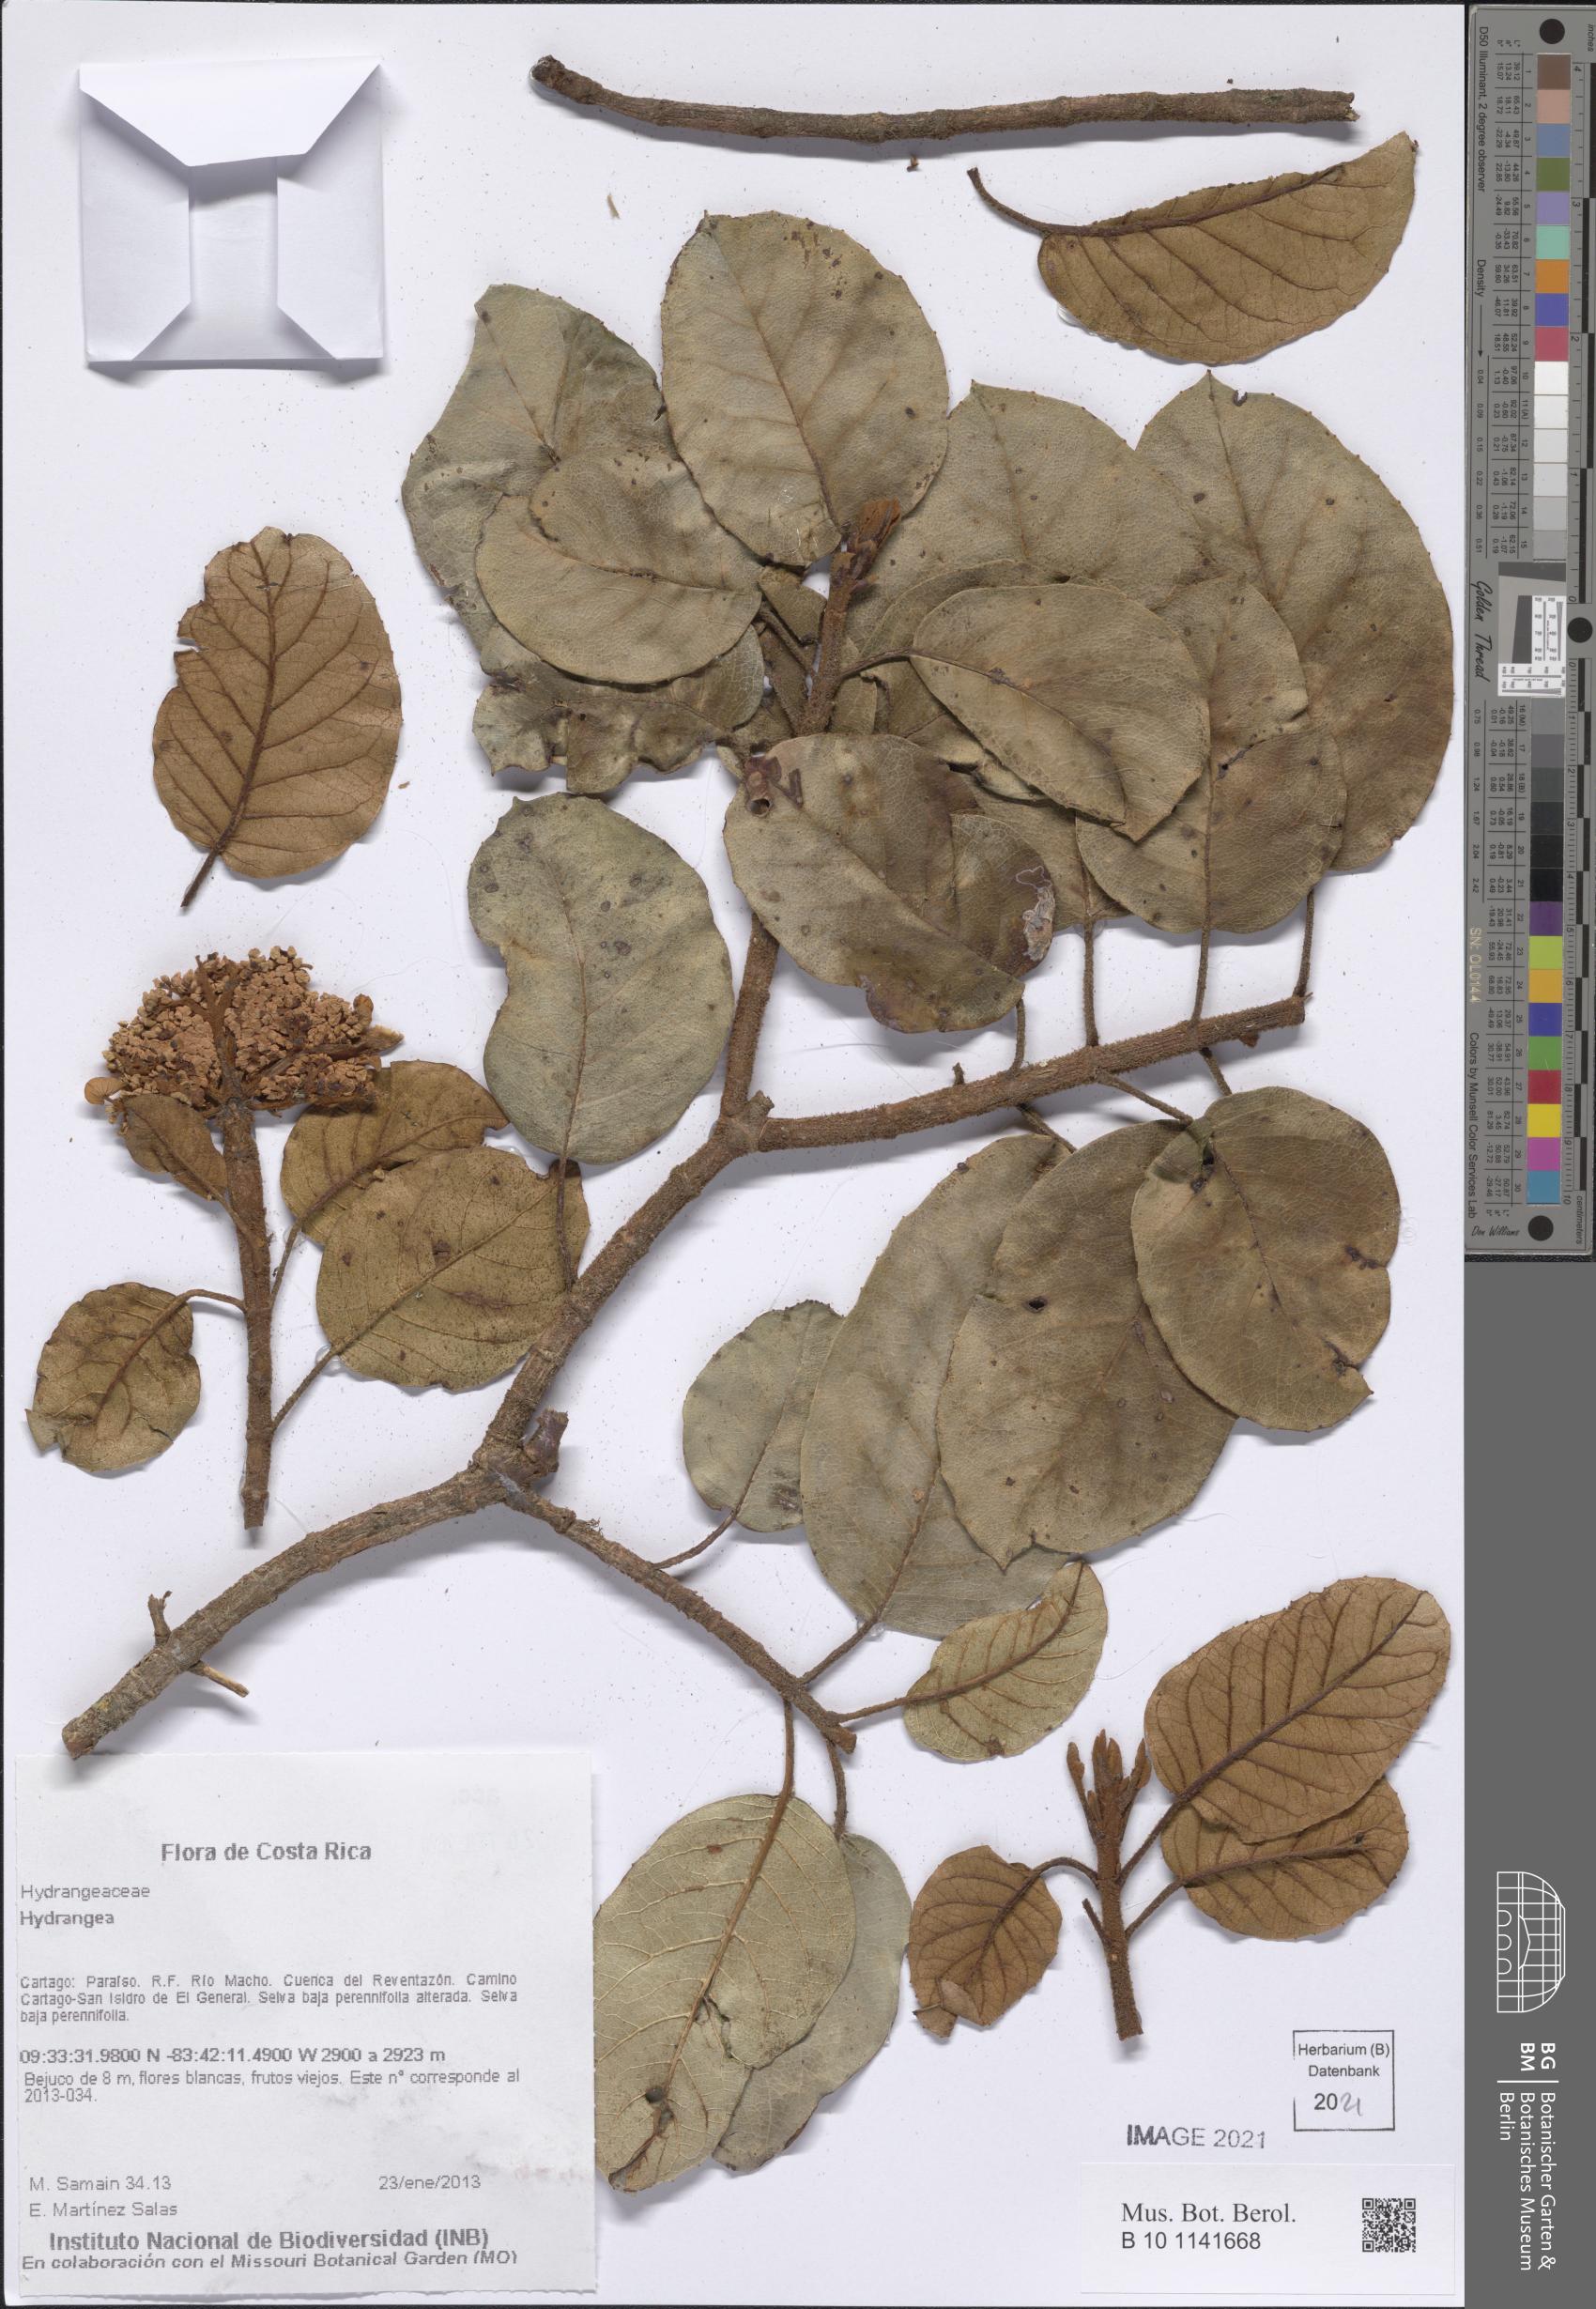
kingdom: Plantae
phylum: Tracheophyta
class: Magnoliopsida
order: Cornales
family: Hydrangeaceae
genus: Hydrangea
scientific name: Hydrangea
